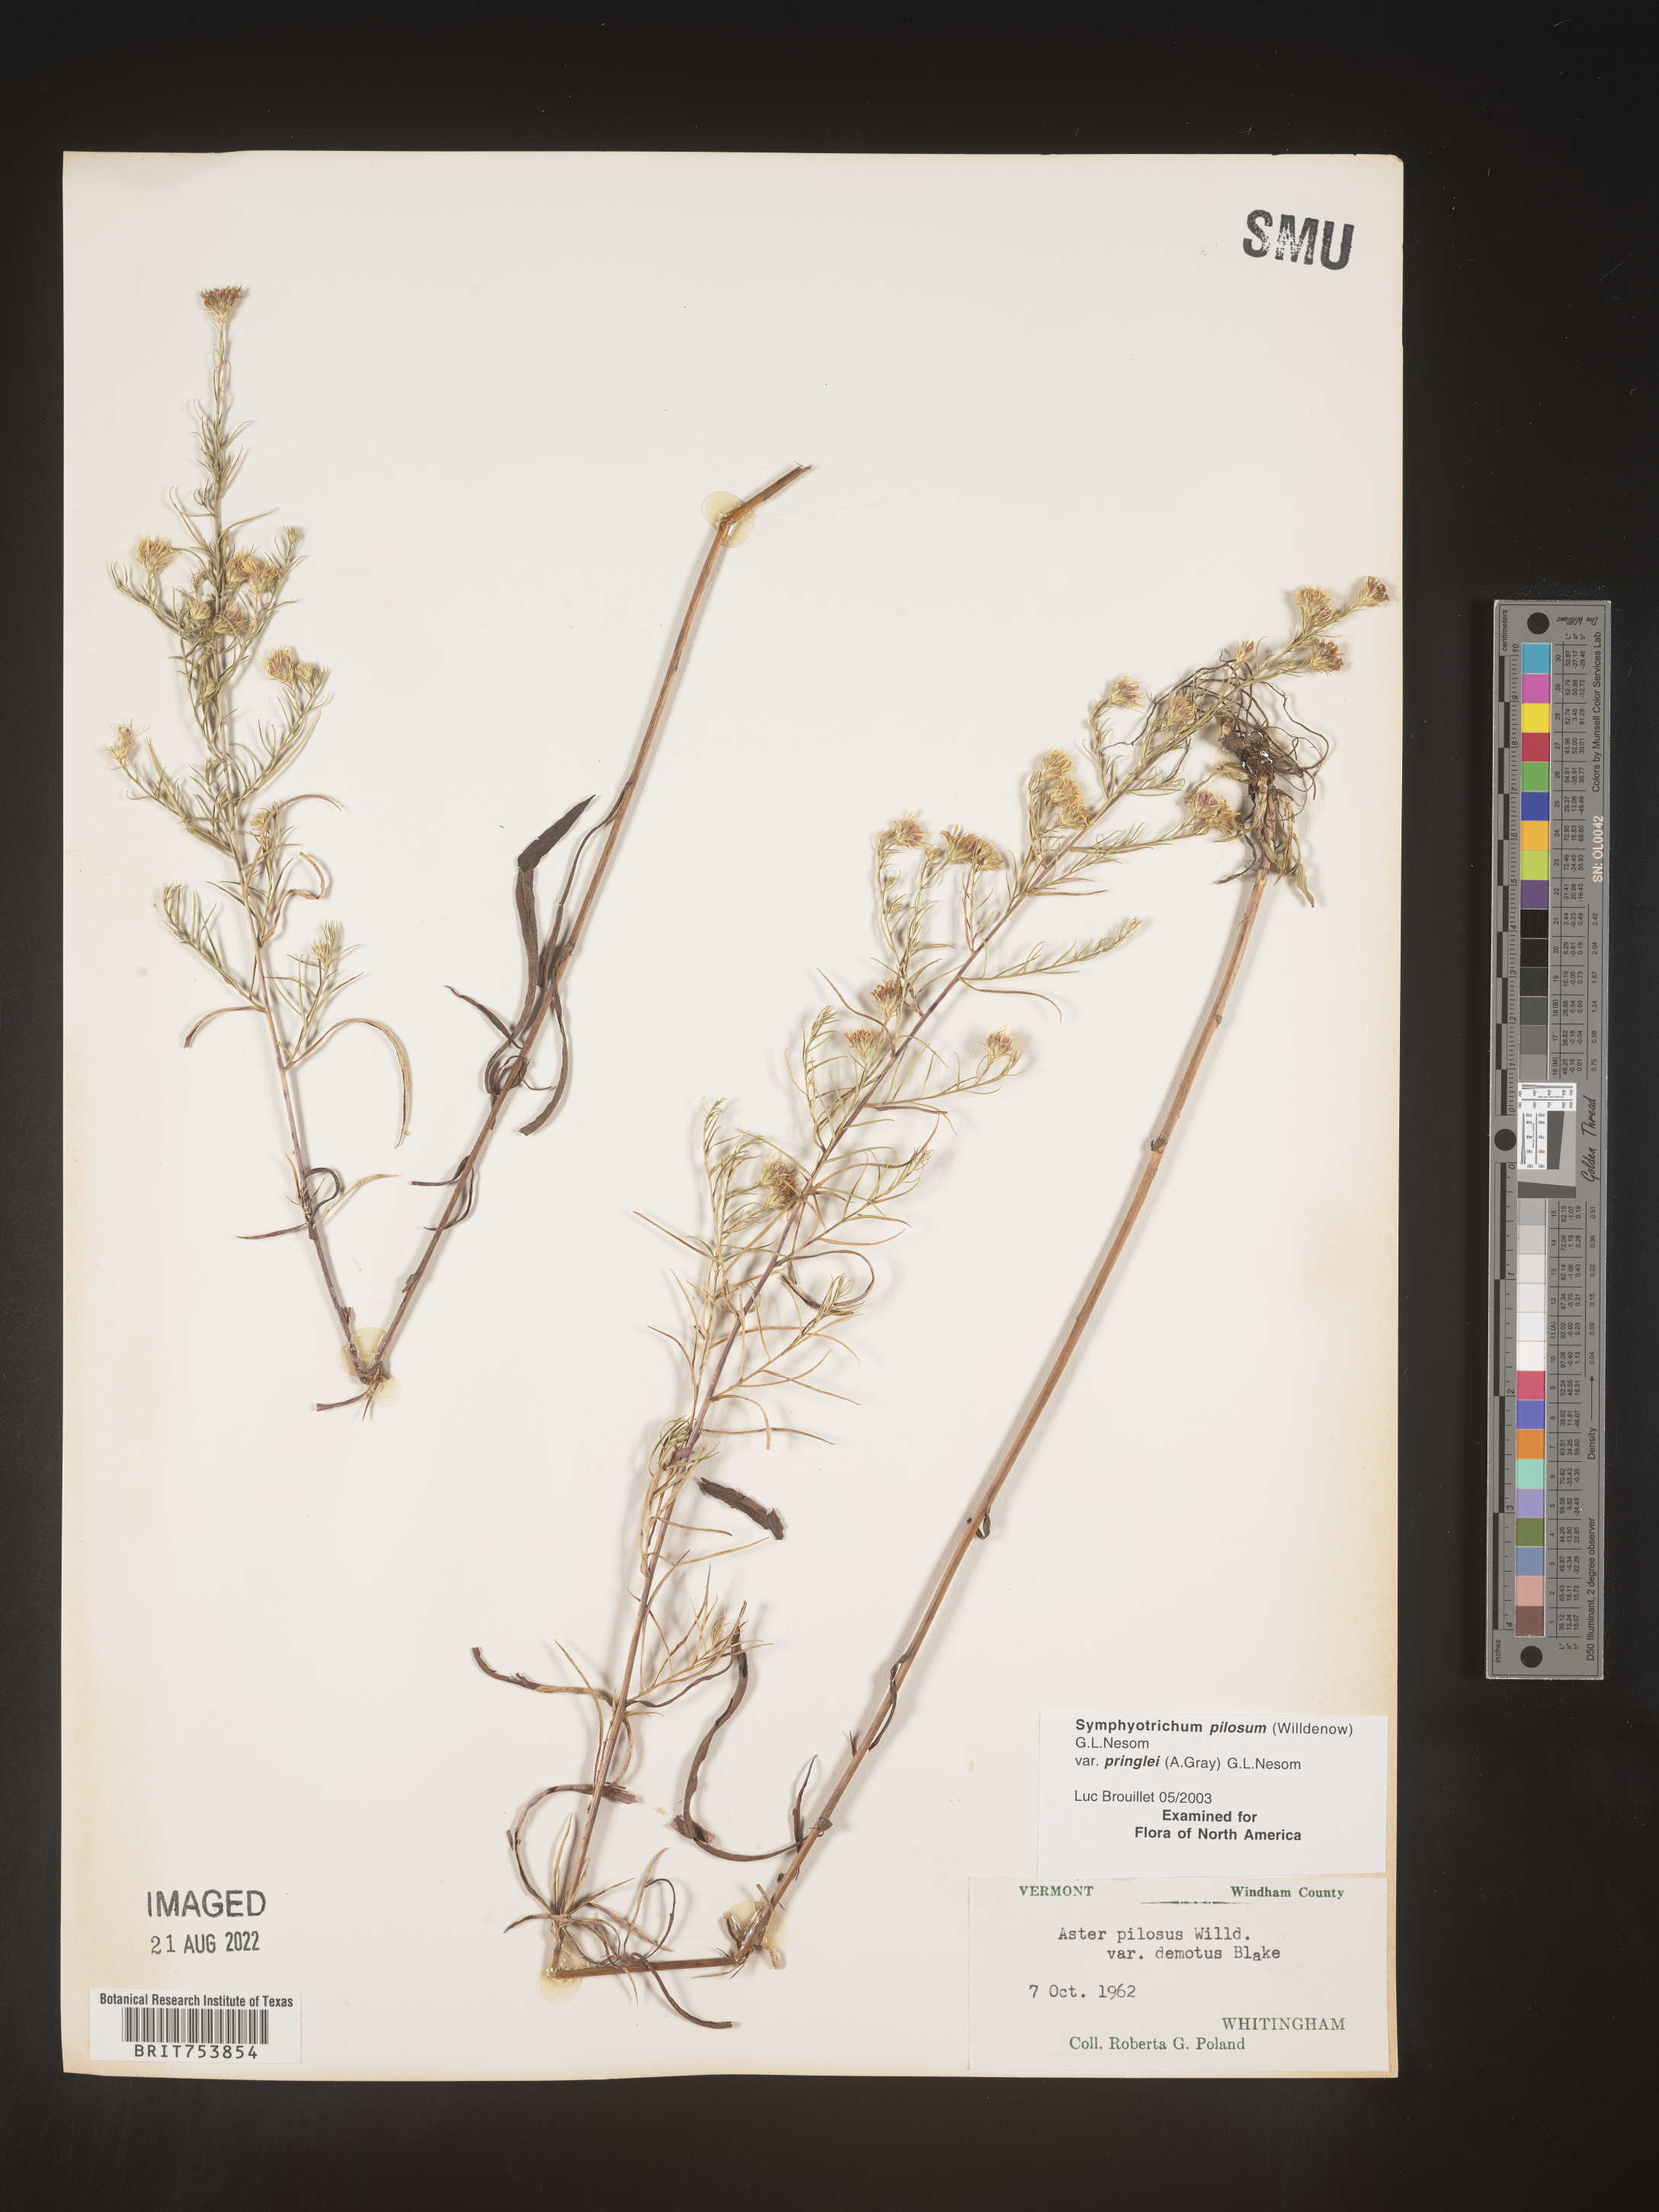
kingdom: Plantae
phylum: Tracheophyta
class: Magnoliopsida
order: Asterales
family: Asteraceae
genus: Symphyotrichum
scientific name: Symphyotrichum pilosum
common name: Awl aster
